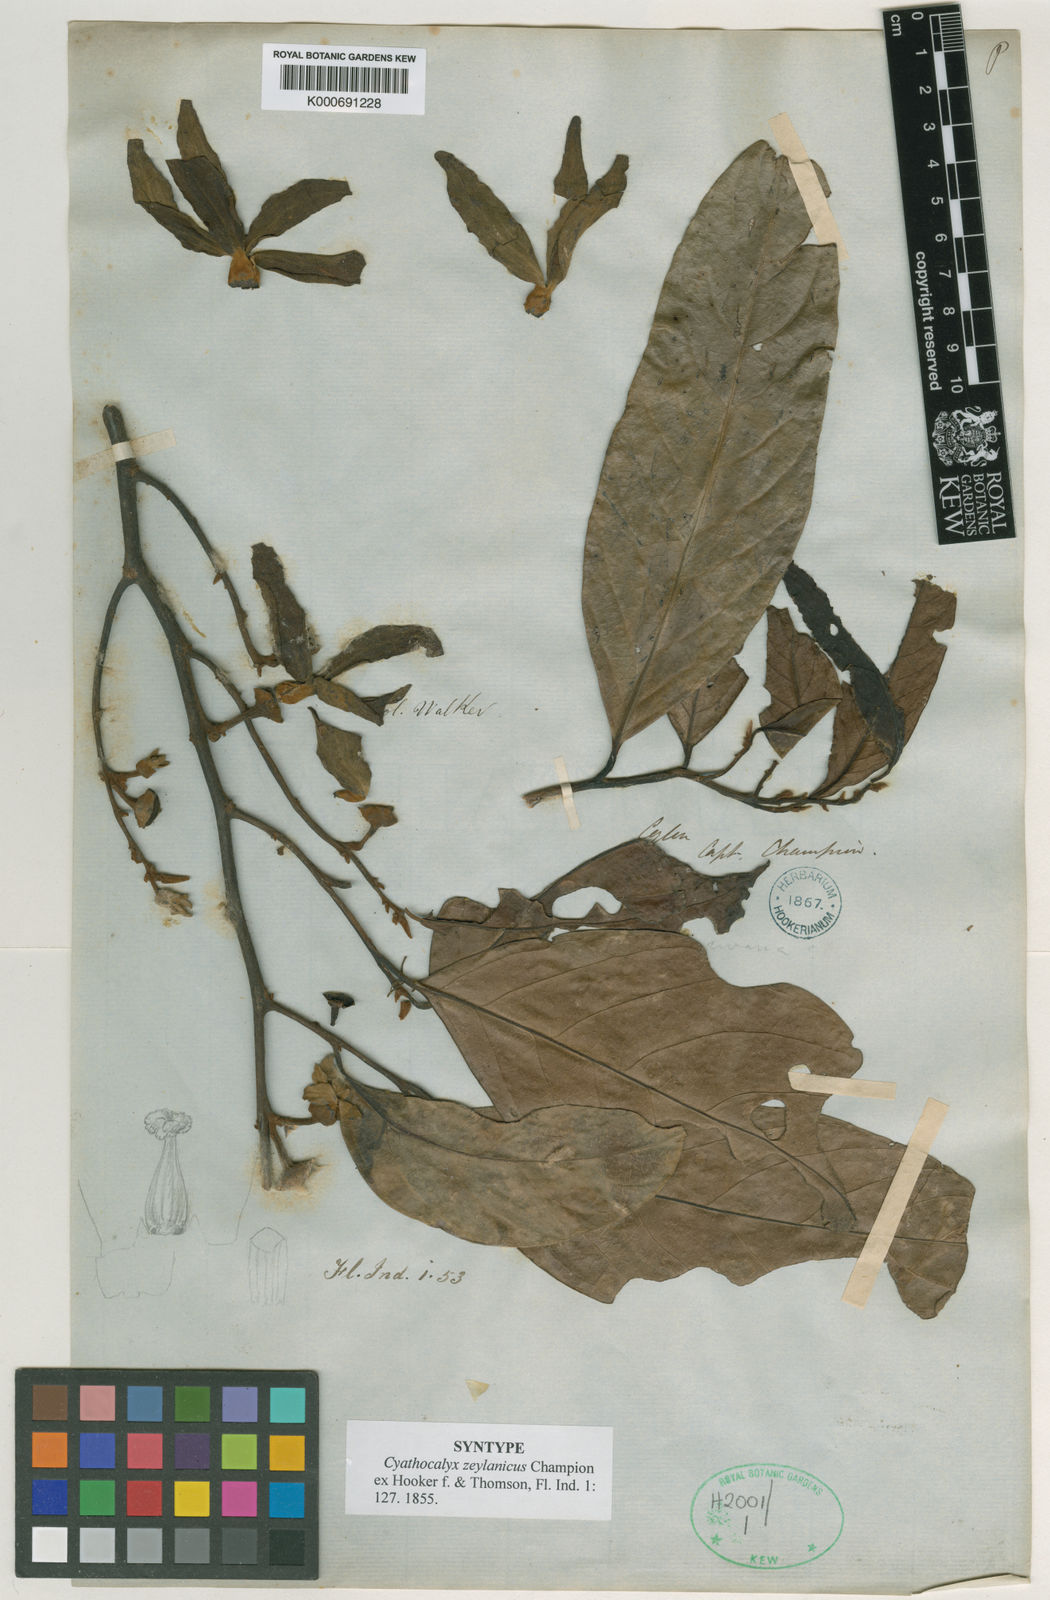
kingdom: Plantae
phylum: Tracheophyta
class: Magnoliopsida
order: Magnoliales
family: Annonaceae
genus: Cyathocalyx
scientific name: Cyathocalyx zeylanicus
